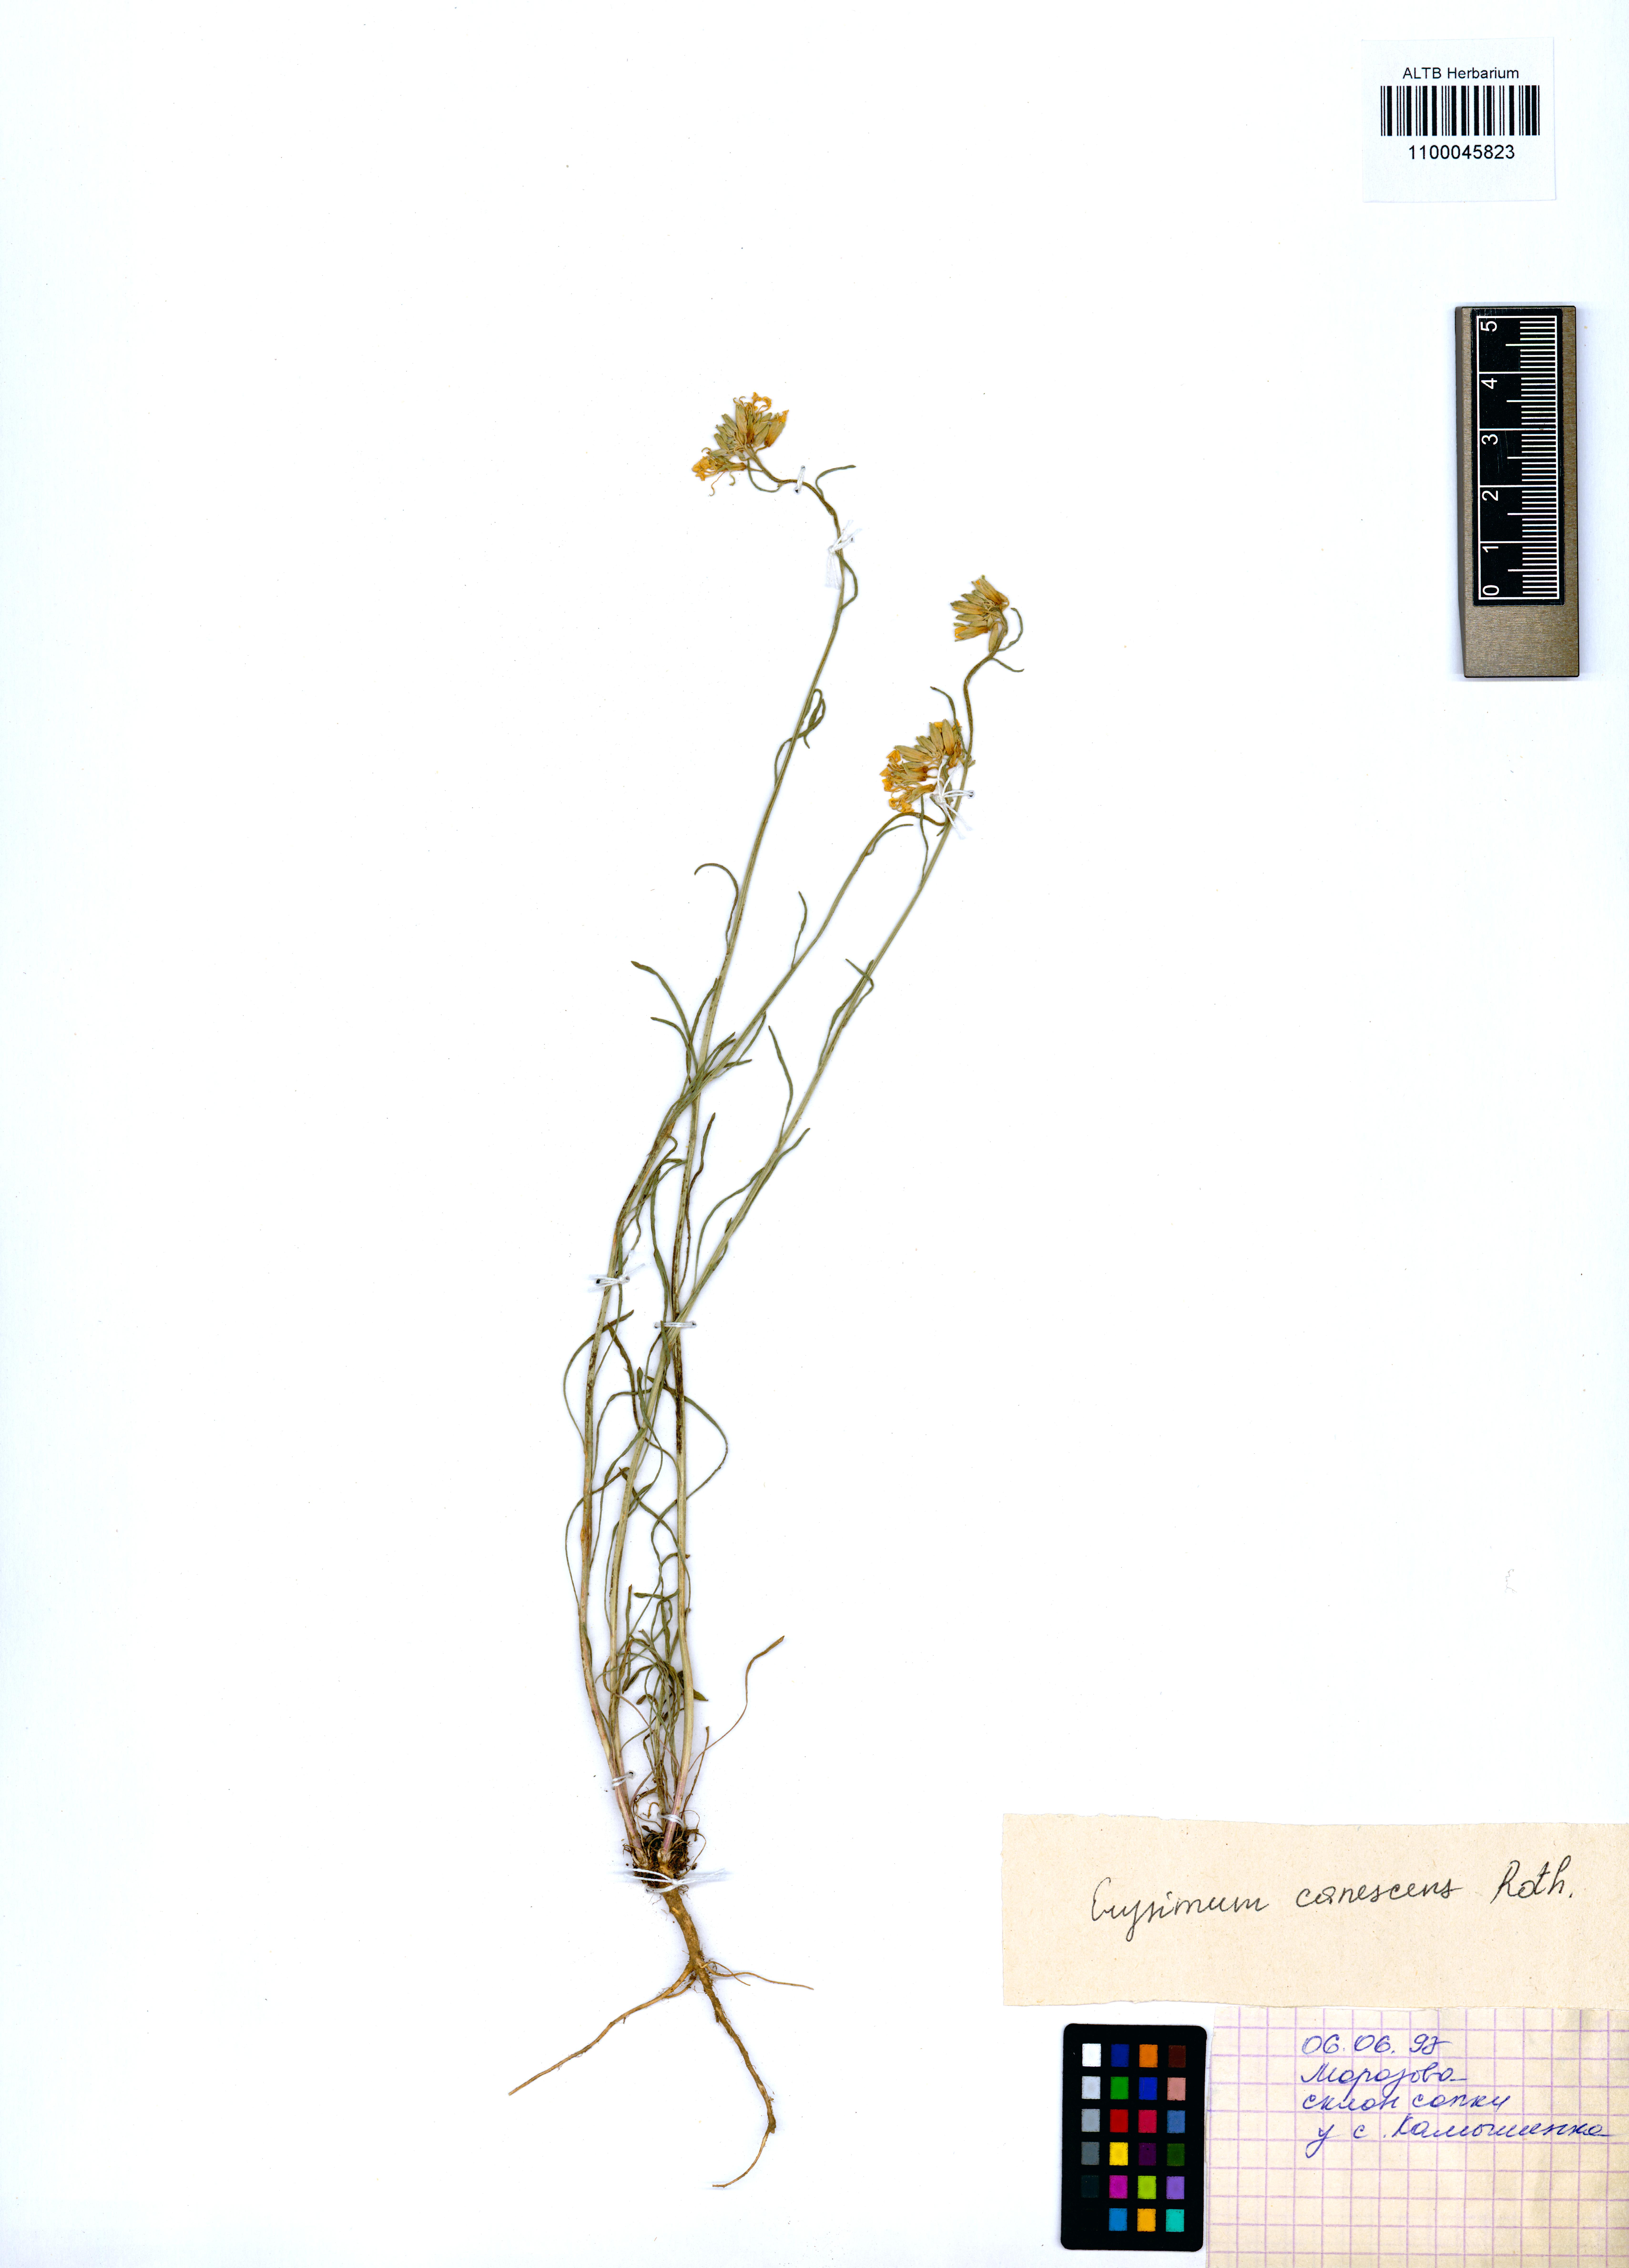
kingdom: Plantae
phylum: Tracheophyta
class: Magnoliopsida
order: Brassicales
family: Brassicaceae
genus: Erysimum
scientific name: Erysimum canescens
